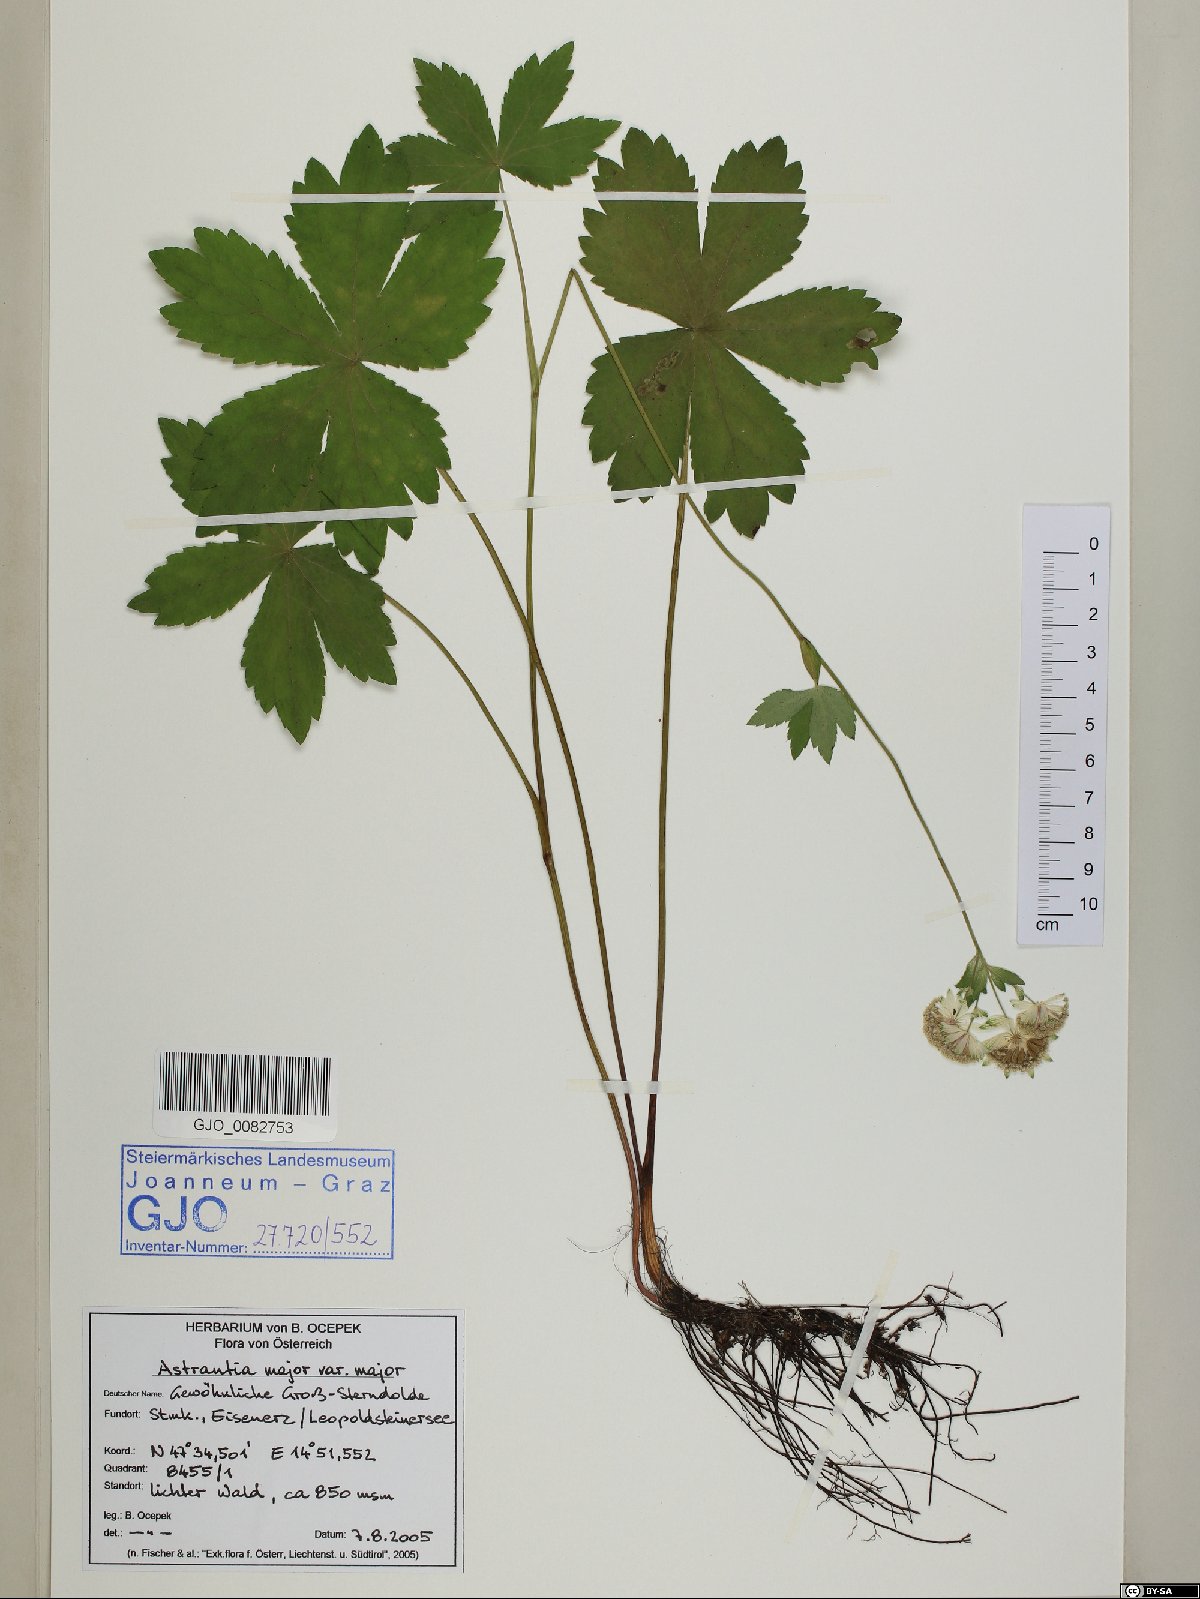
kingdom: Plantae
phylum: Tracheophyta
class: Magnoliopsida
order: Apiales
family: Apiaceae
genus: Astrantia
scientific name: Astrantia major
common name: Greater masterwort
